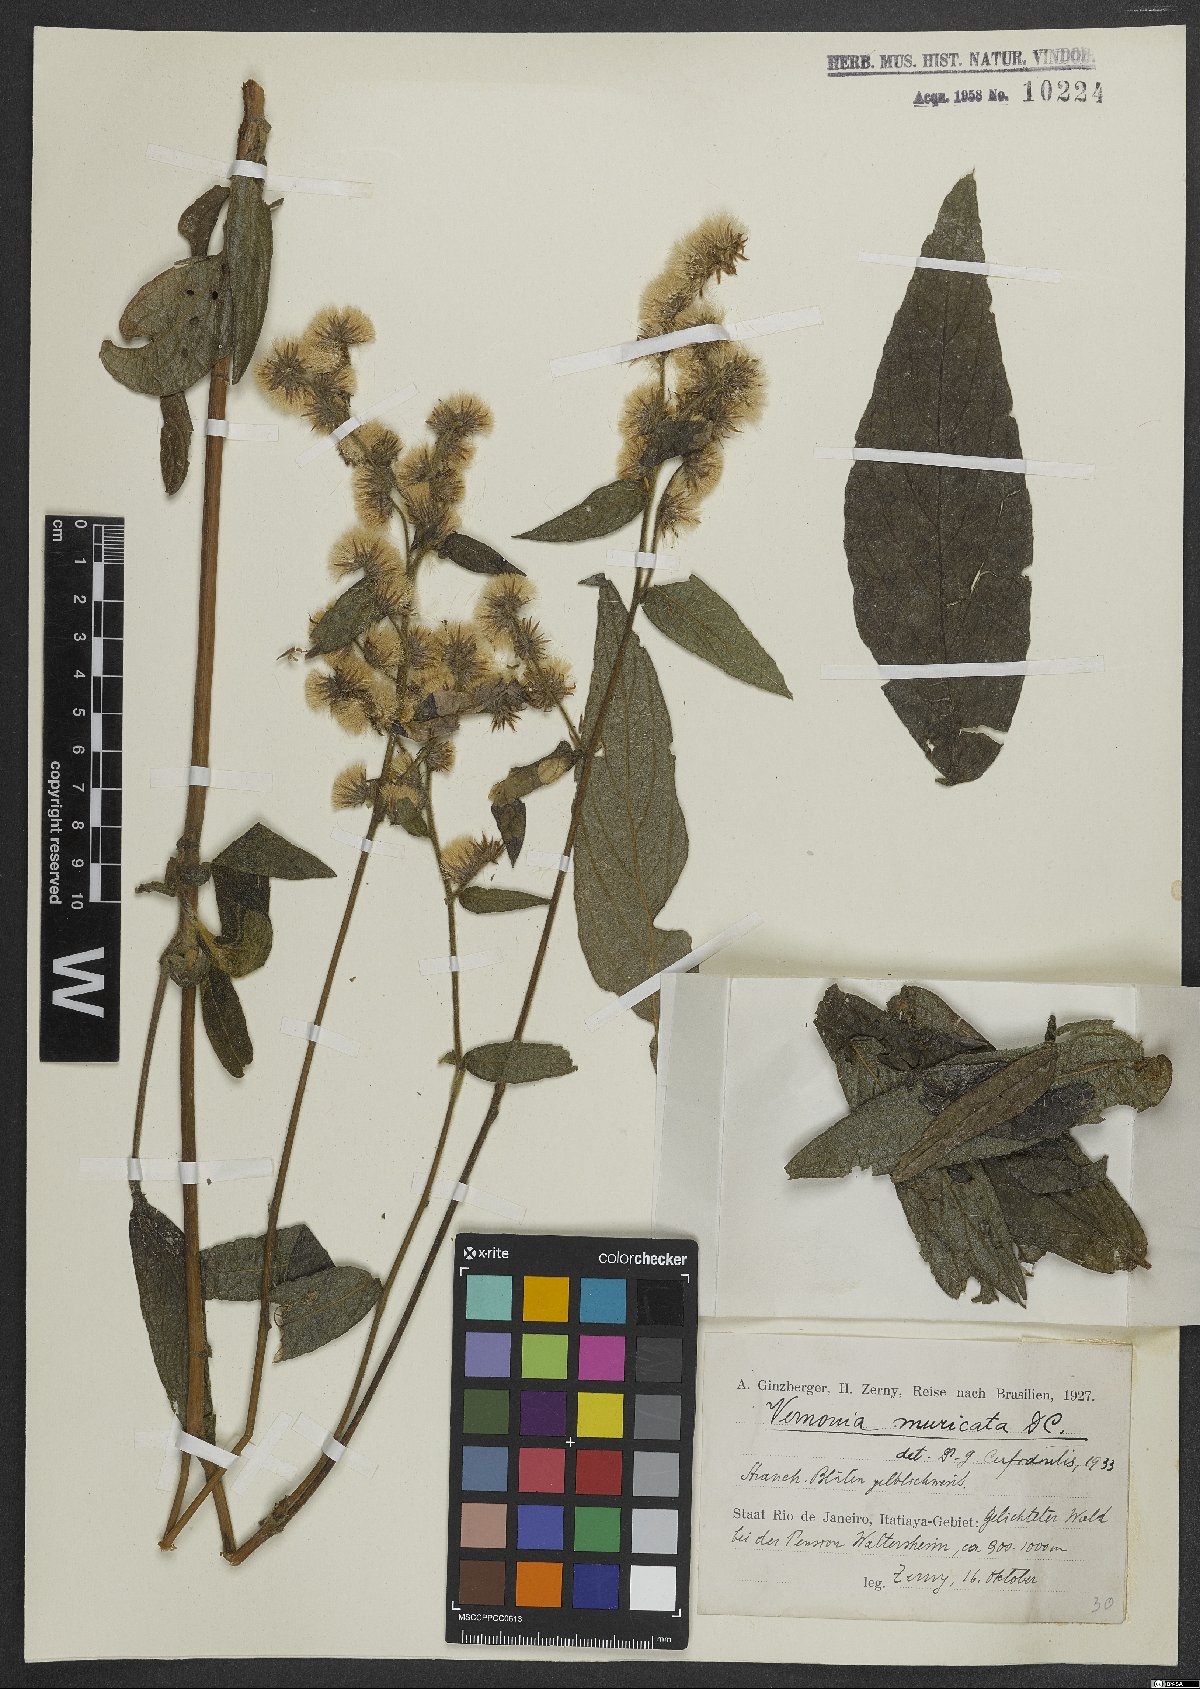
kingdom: Plantae
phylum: Tracheophyta
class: Magnoliopsida
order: Asterales
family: Asteraceae
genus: Lepidaploa
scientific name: Lepidaploa muricata
